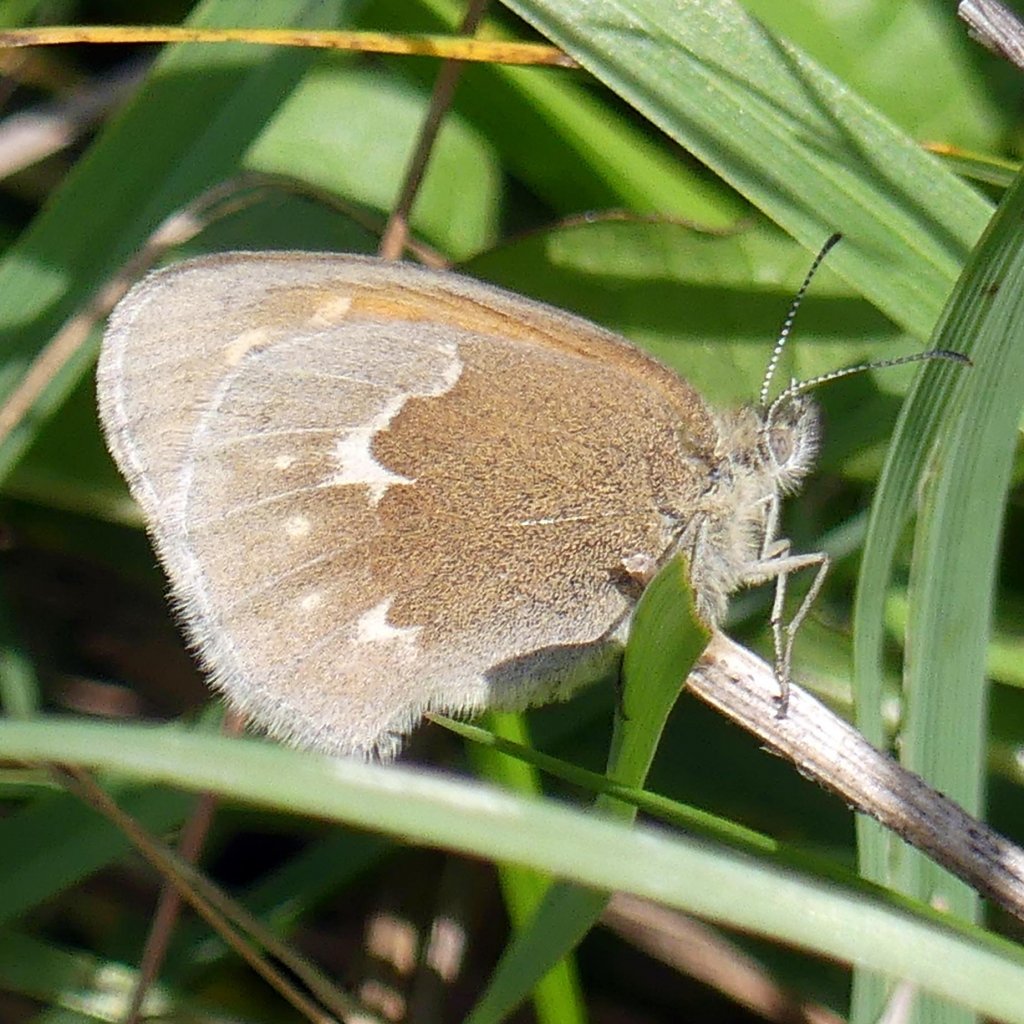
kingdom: Animalia
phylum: Arthropoda
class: Insecta
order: Lepidoptera
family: Nymphalidae
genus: Coenonympha
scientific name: Coenonympha tullia
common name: Large Heath
